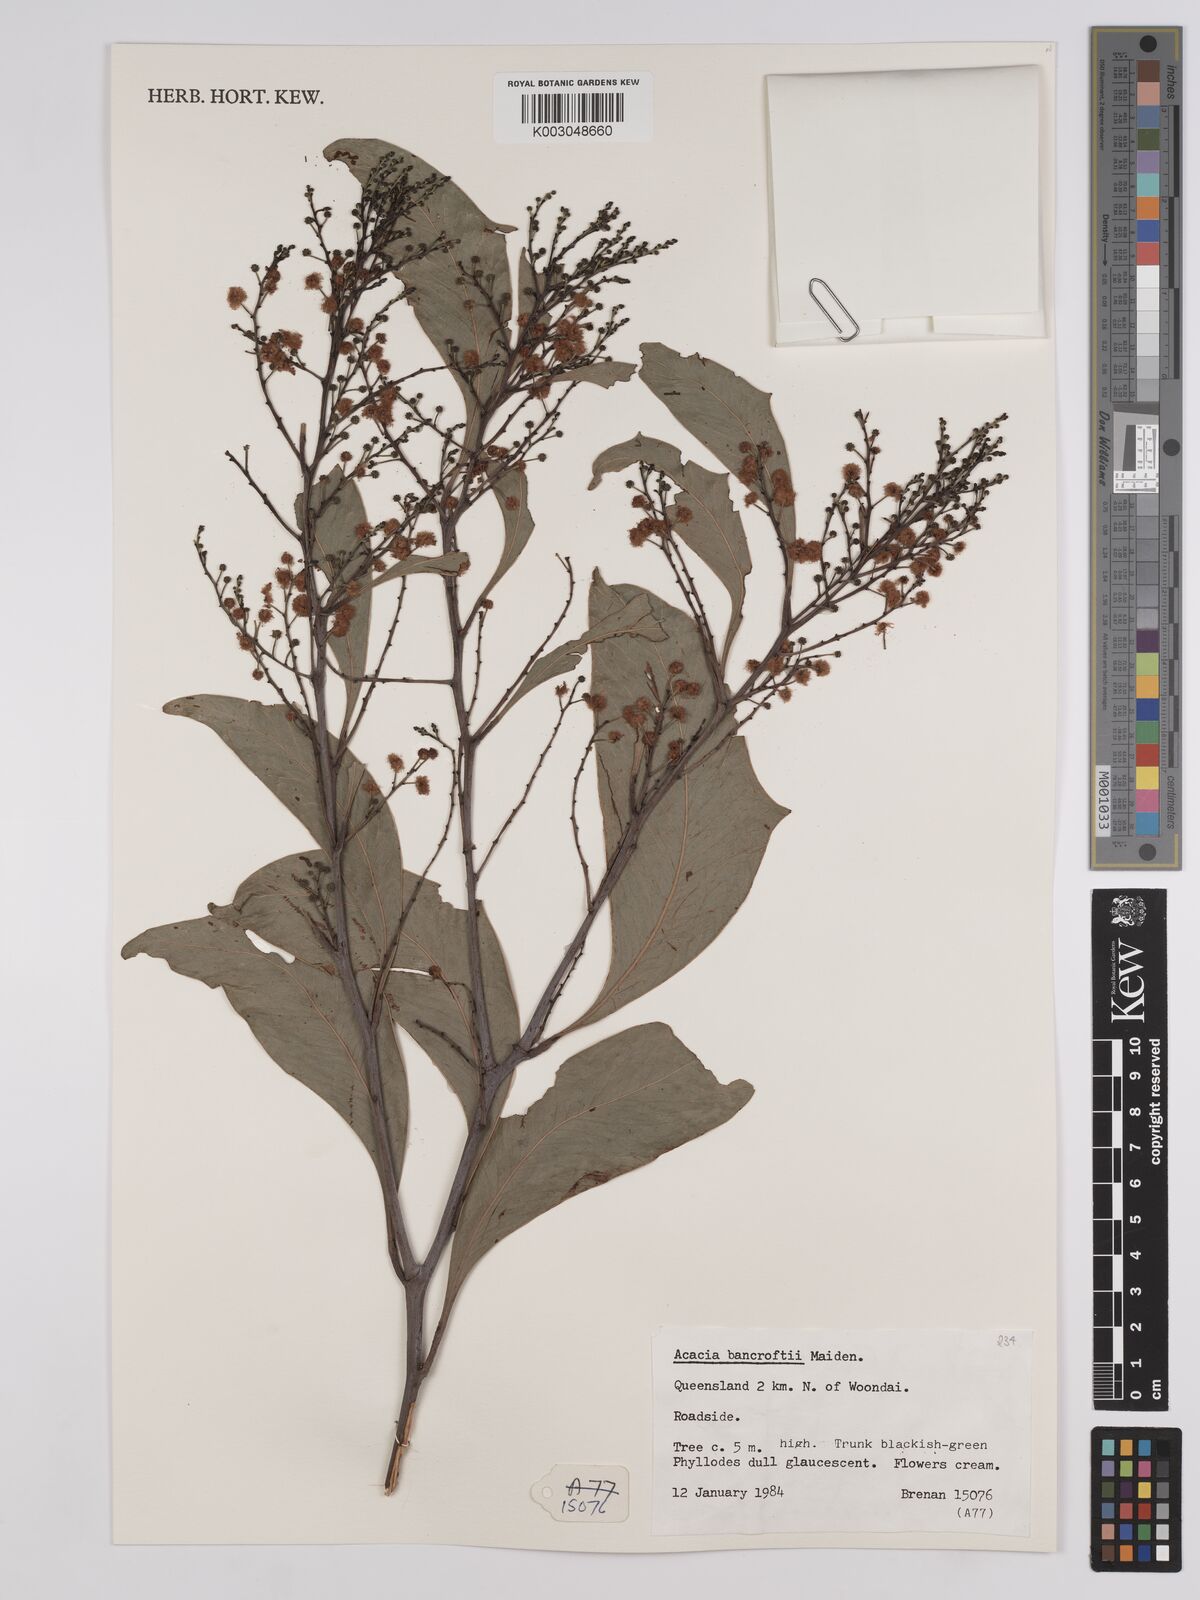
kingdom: Plantae
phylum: Tracheophyta
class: Magnoliopsida
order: Fabales
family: Fabaceae
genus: Acacia
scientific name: Acacia
